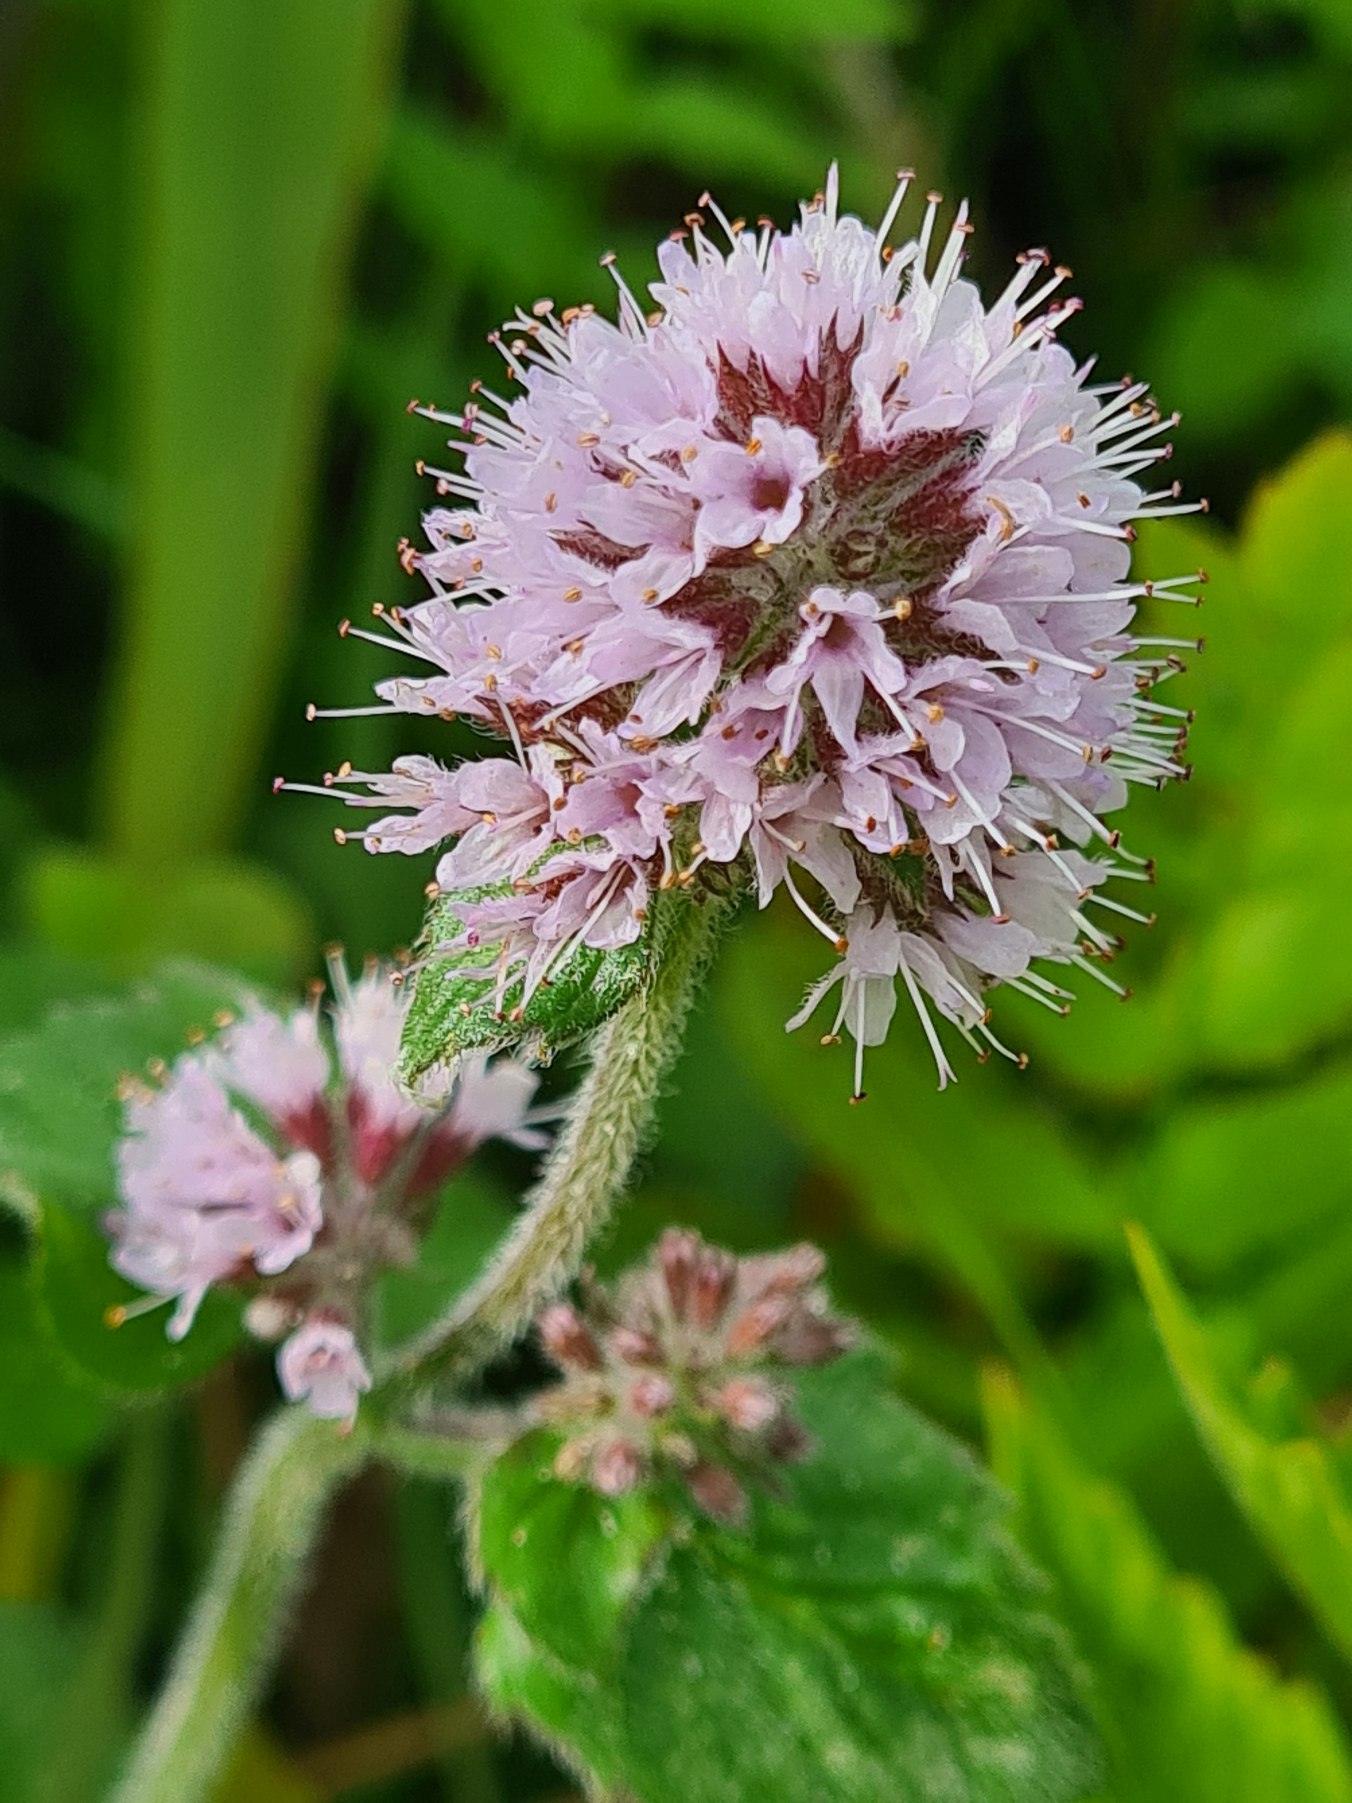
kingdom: Plantae
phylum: Tracheophyta
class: Magnoliopsida
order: Lamiales
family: Lamiaceae
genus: Mentha
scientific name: Mentha aquatica
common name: Vand-mynte
